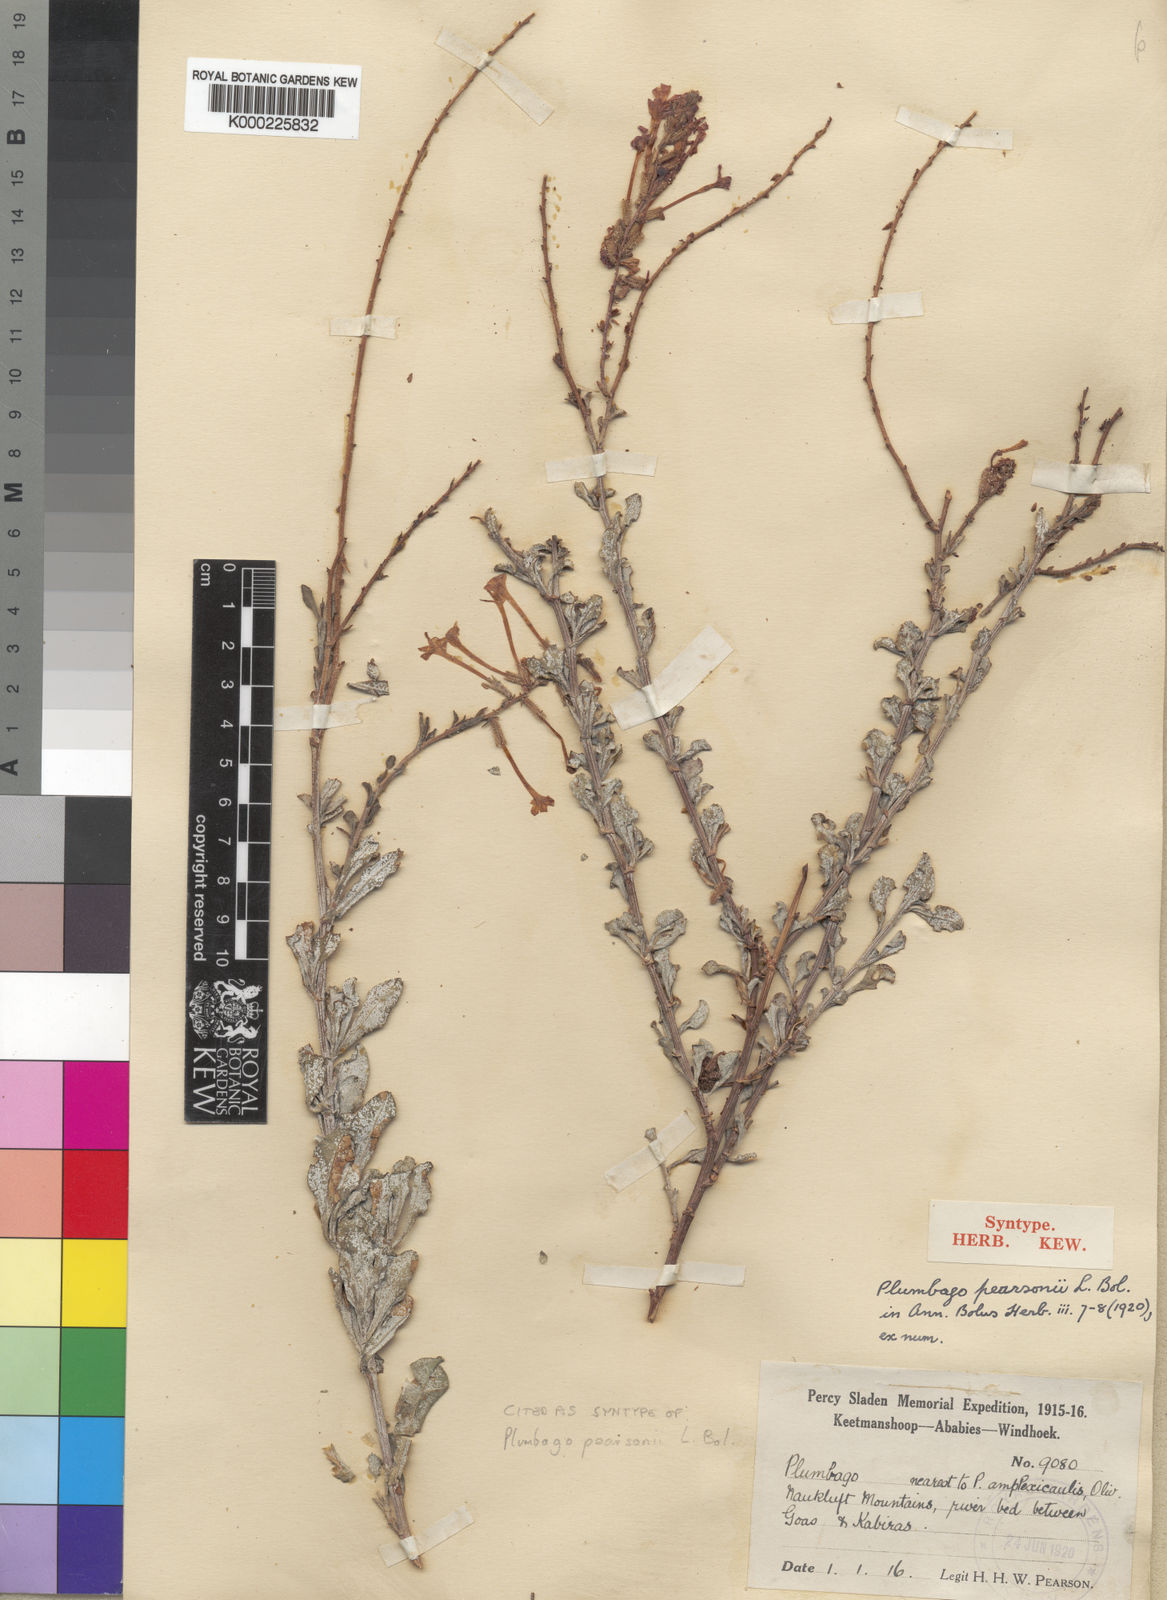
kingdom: Plantae
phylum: Tracheophyta
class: Magnoliopsida
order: Caryophyllales
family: Plumbaginaceae
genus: Plumbago
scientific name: Plumbago aphylla
